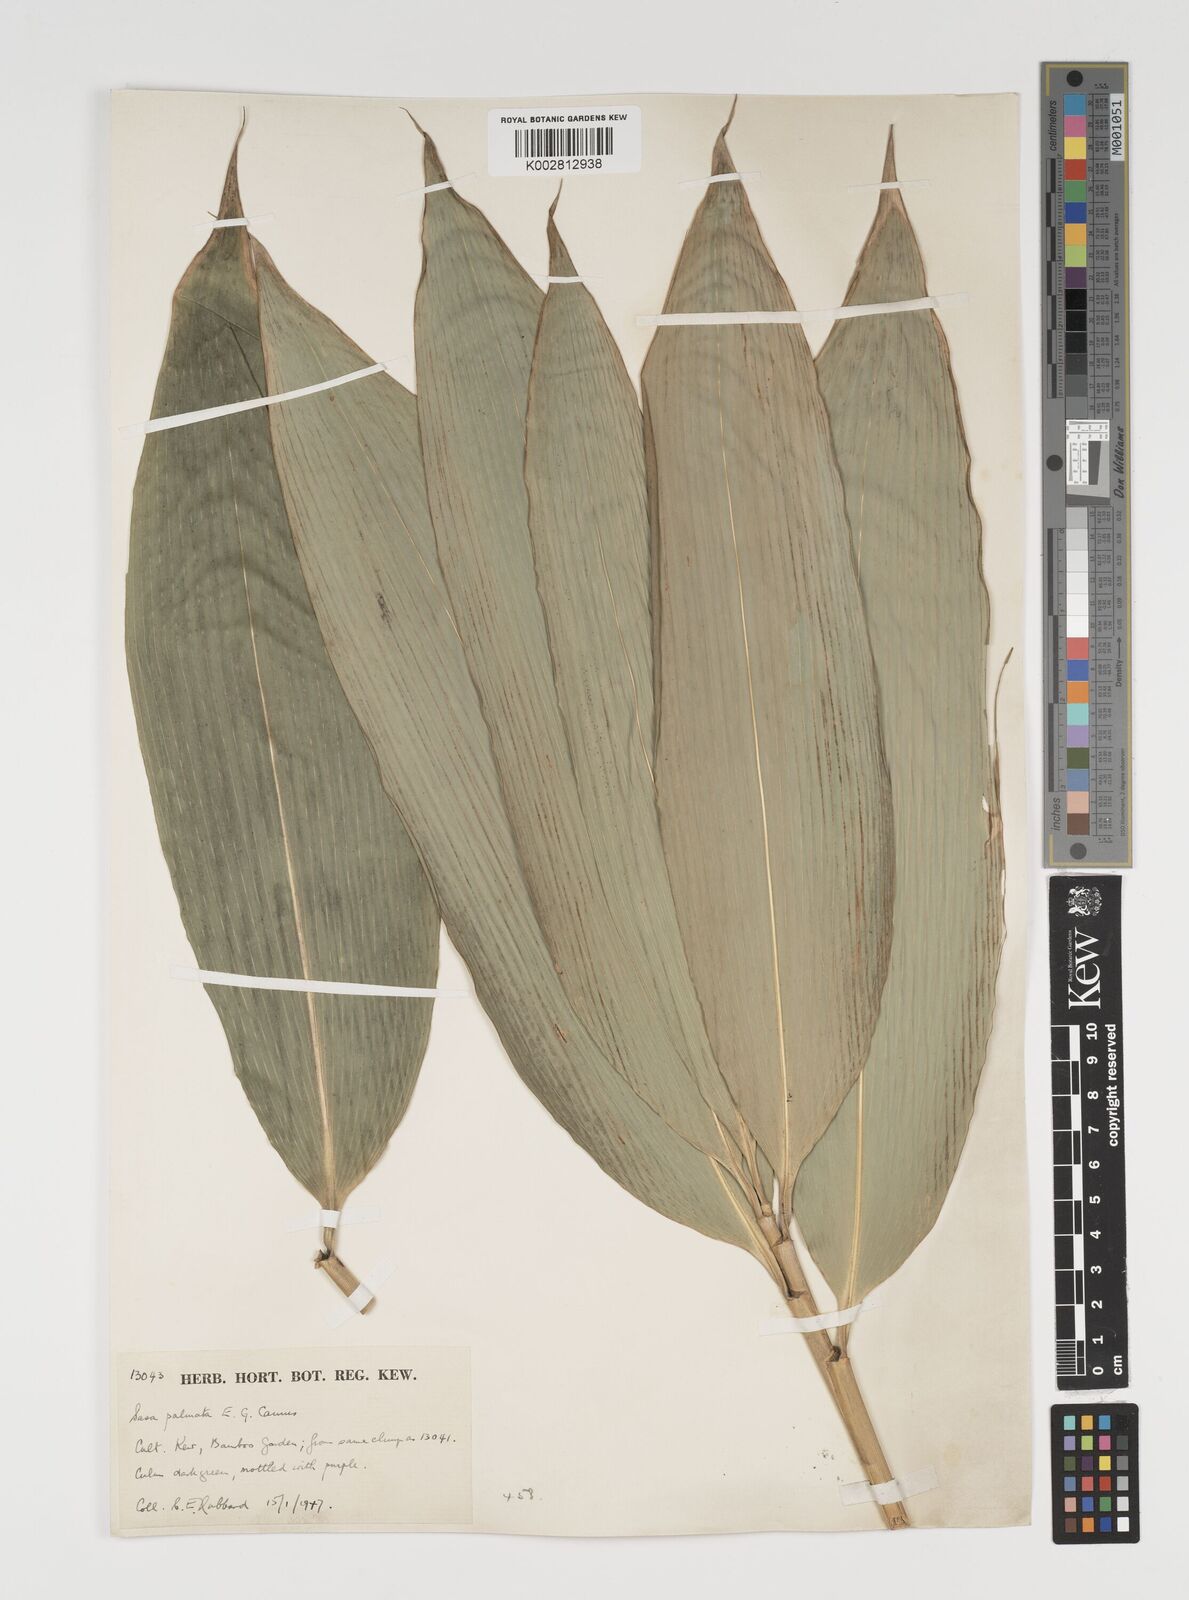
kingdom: Plantae
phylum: Tracheophyta
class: Liliopsida
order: Poales
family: Poaceae
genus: Sasa
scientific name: Sasa palmata
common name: Broad-leaved bamboo
